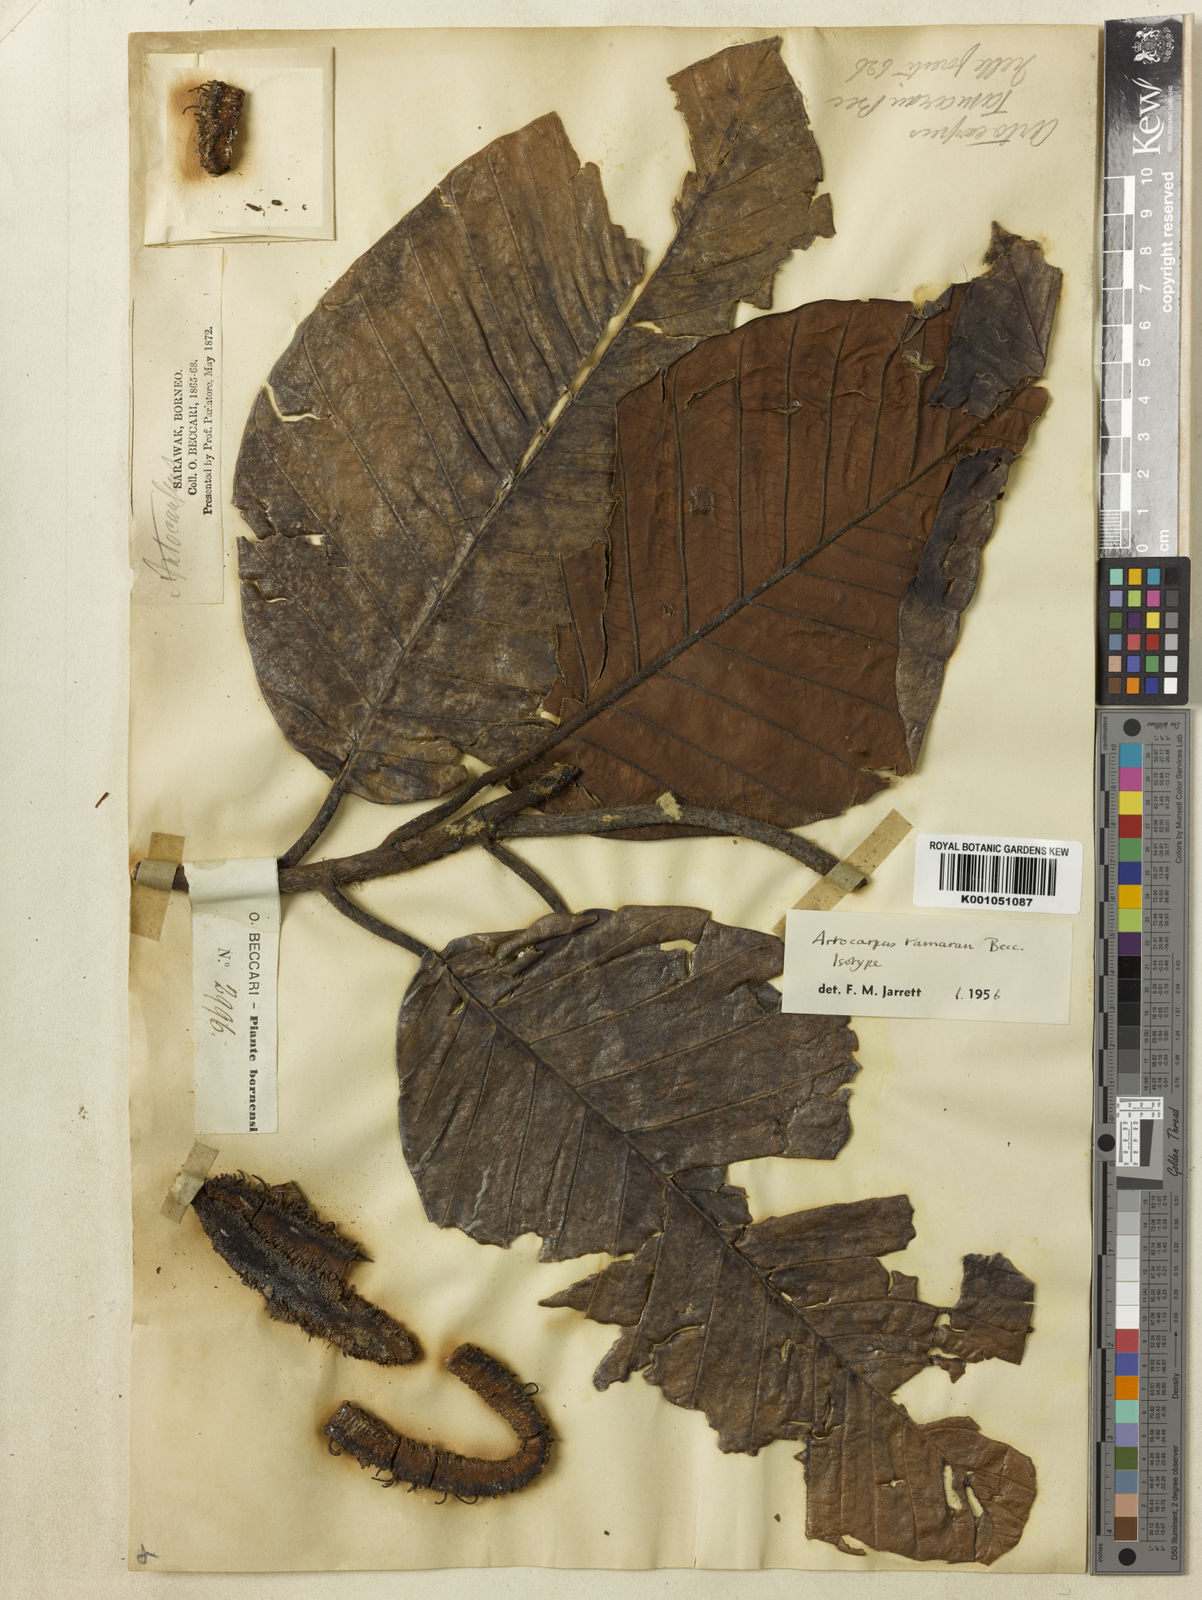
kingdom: Plantae
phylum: Tracheophyta
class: Magnoliopsida
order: Rosales
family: Moraceae
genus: Artocarpus
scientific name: Artocarpus tamaran
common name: Elephant jack
